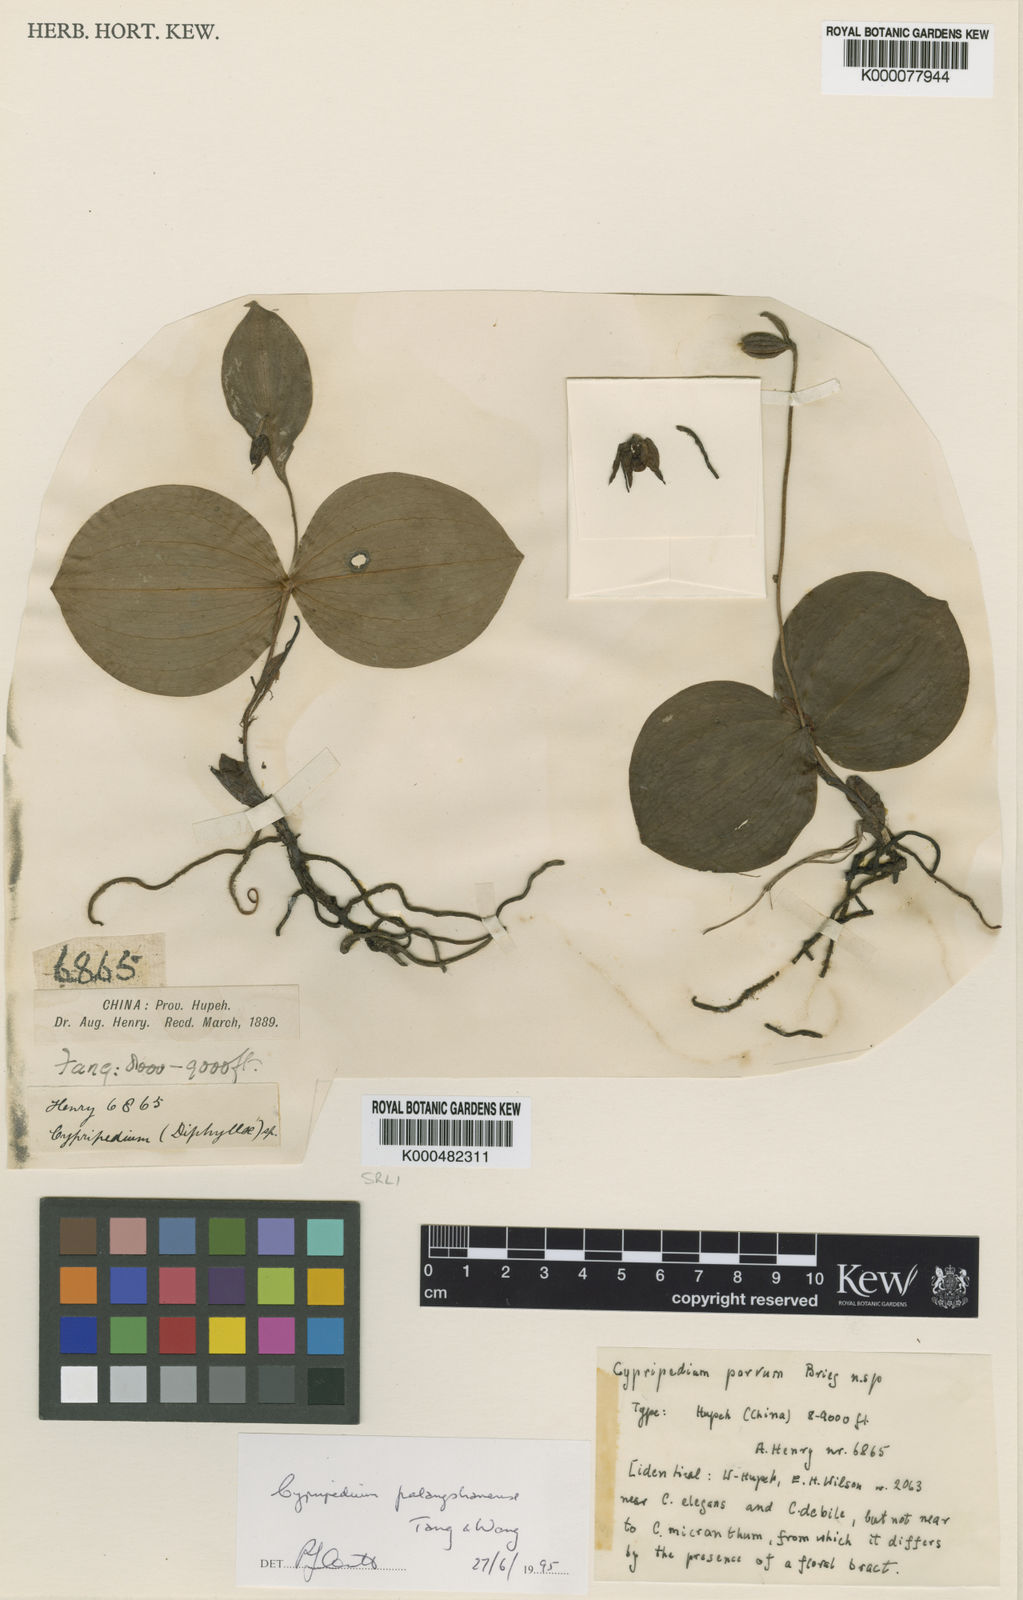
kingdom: Plantae
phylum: Tracheophyta
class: Liliopsida
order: Asparagales
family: Orchidaceae
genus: Cypripedium
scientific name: Cypripedium palangshanense
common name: Palangshan cypripedium
